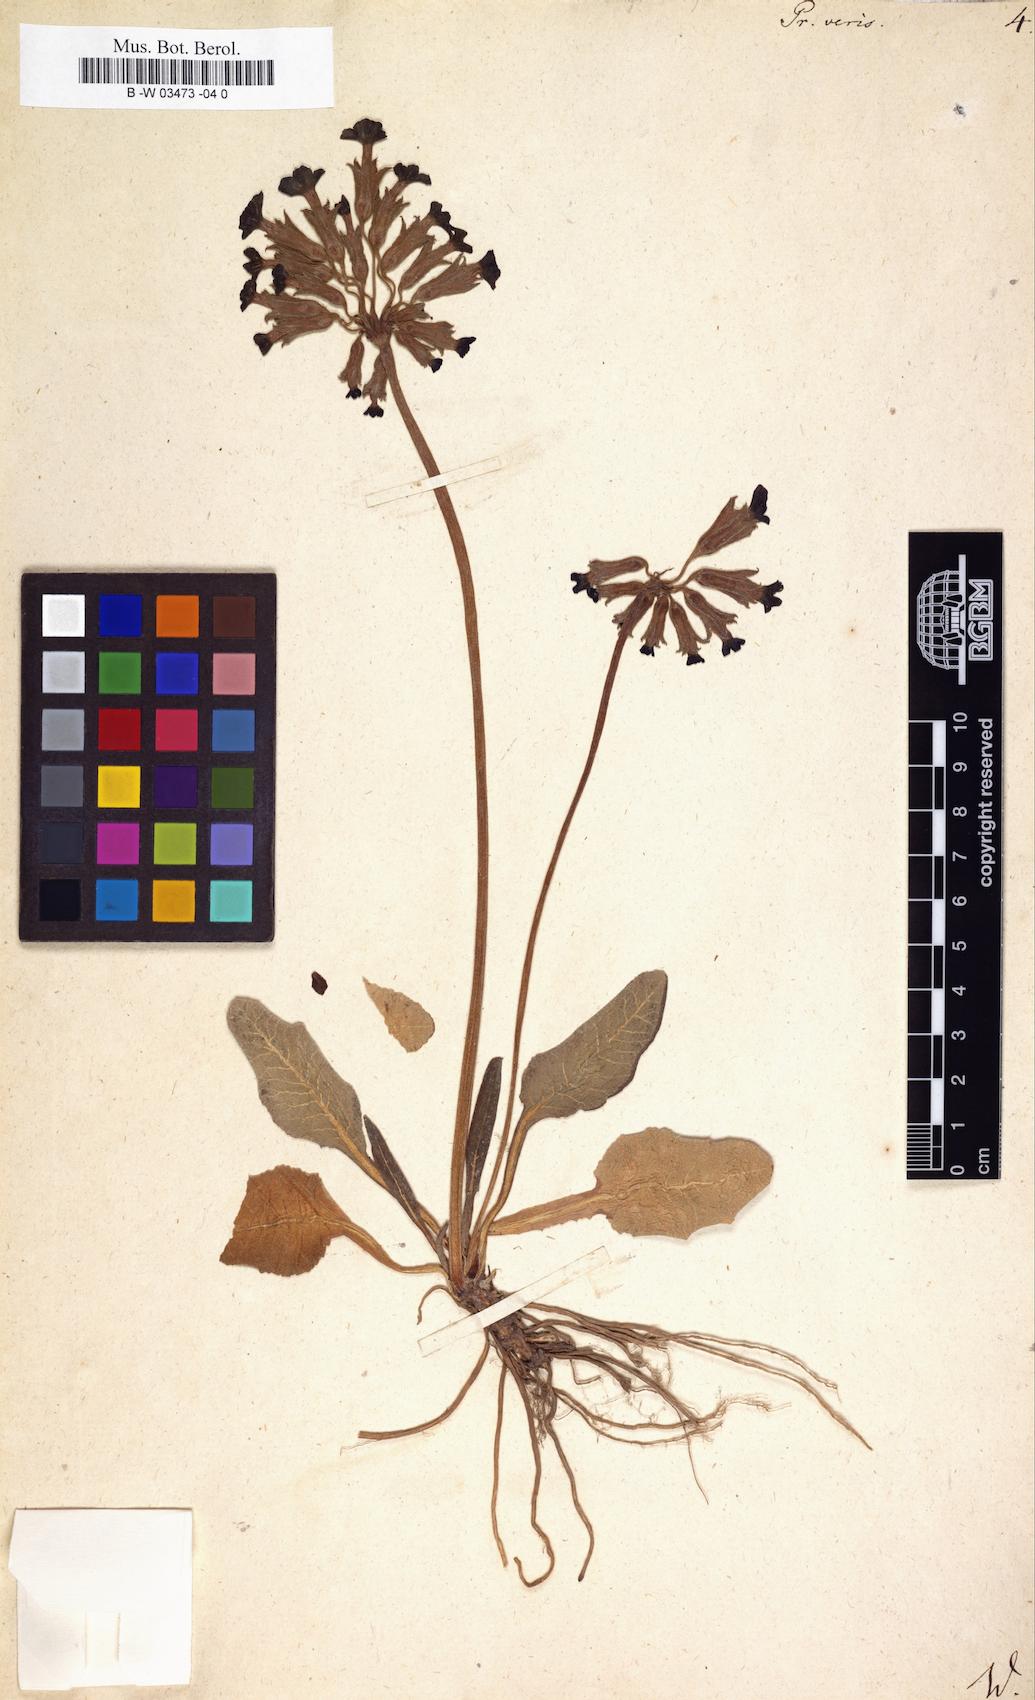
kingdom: Plantae
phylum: Tracheophyta
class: Magnoliopsida
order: Ericales
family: Primulaceae
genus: Primula
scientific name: Primula veris
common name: Cowslip
